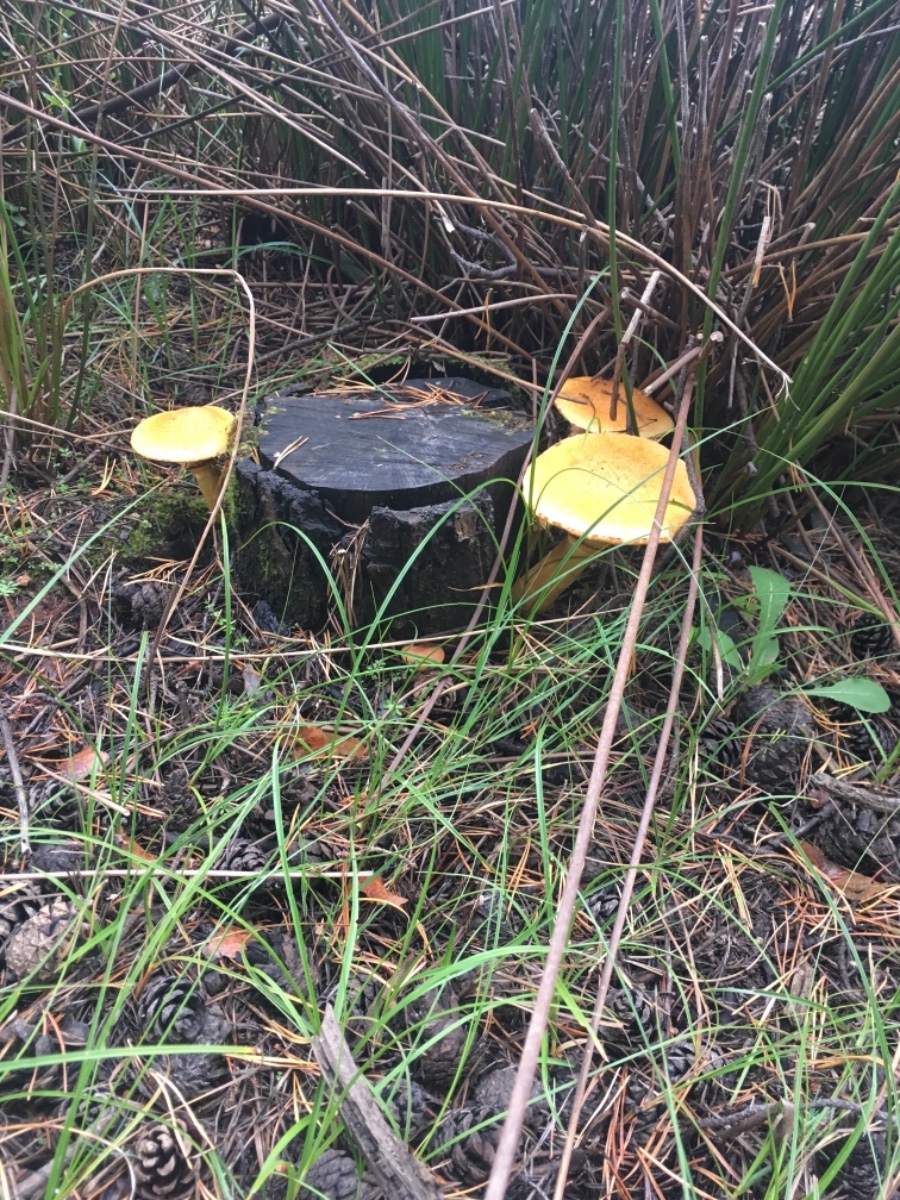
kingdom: Fungi
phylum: Basidiomycota
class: Agaricomycetes
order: Agaricales
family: Hymenogastraceae
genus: Gymnopilus
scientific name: Gymnopilus spectabilis
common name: fibret flammehat
